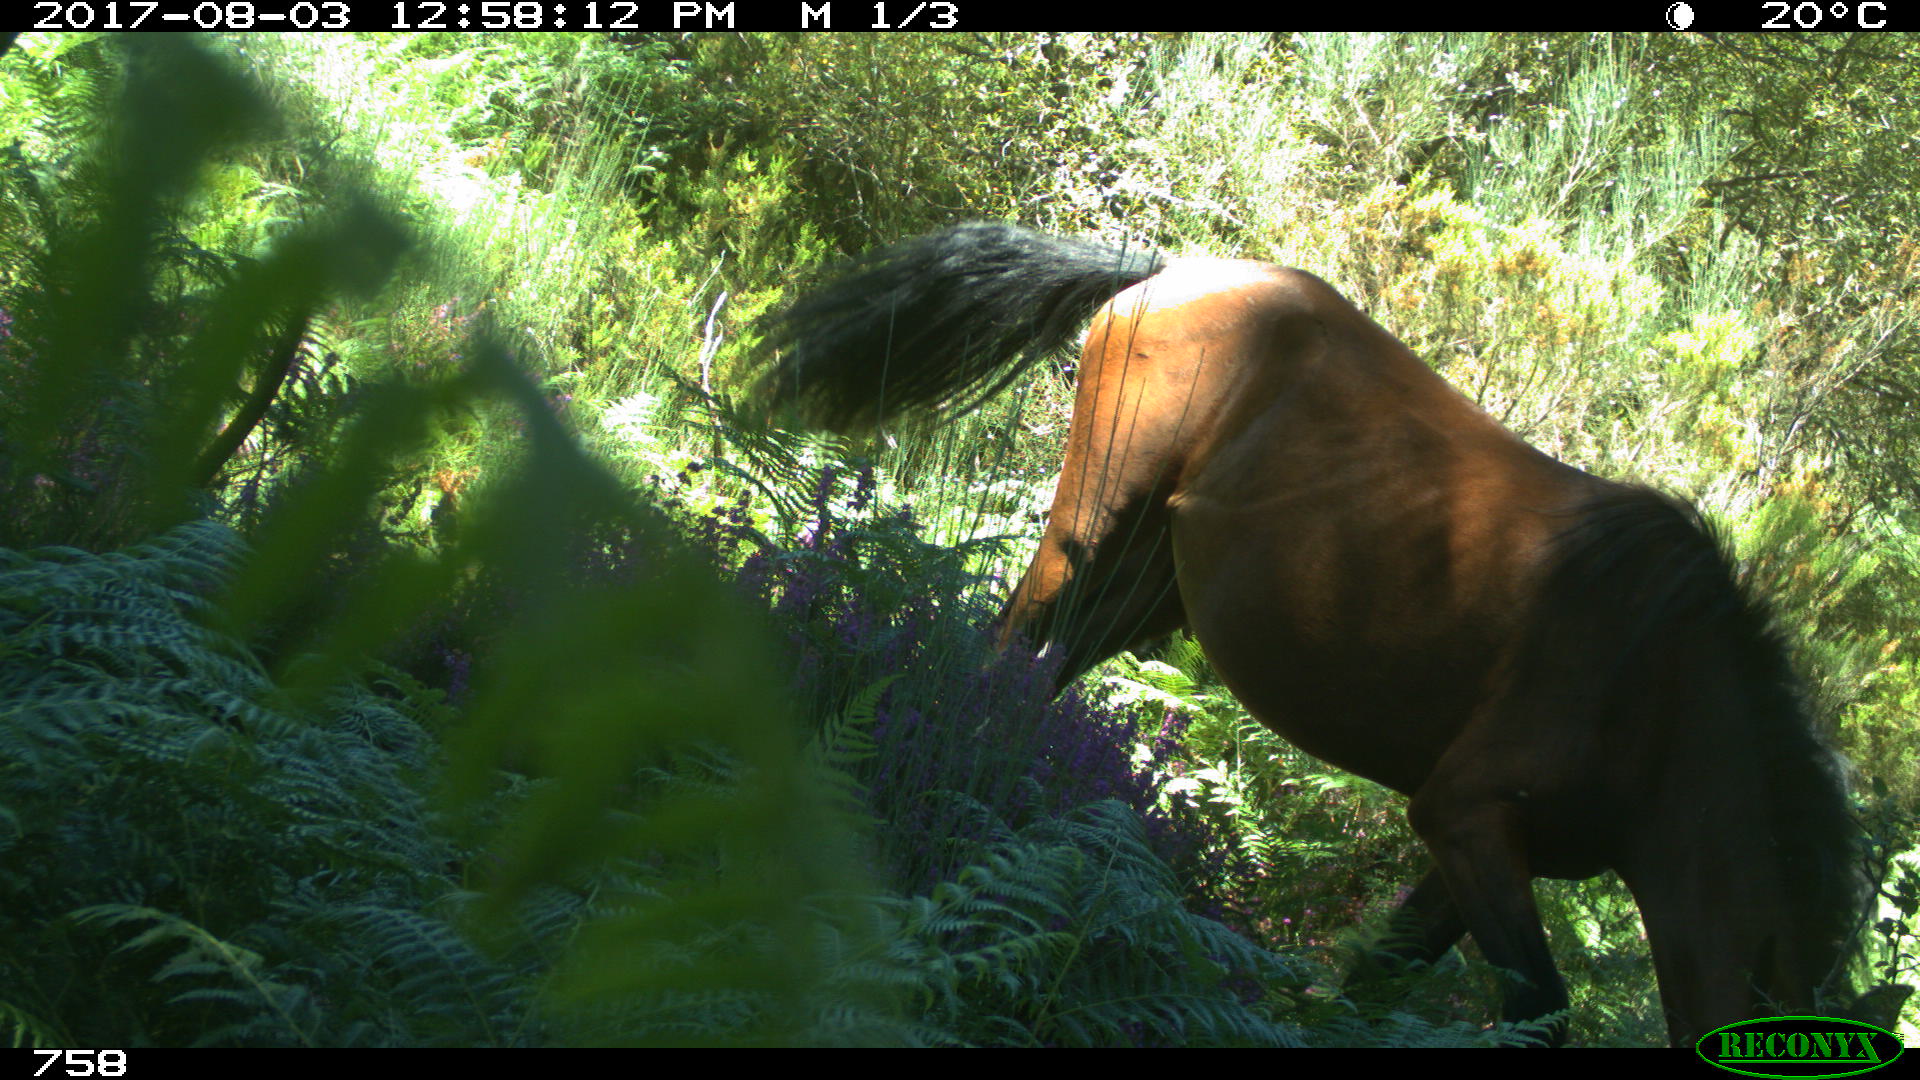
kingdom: Animalia
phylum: Chordata
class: Mammalia
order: Perissodactyla
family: Equidae
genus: Equus
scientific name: Equus caballus
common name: Horse
